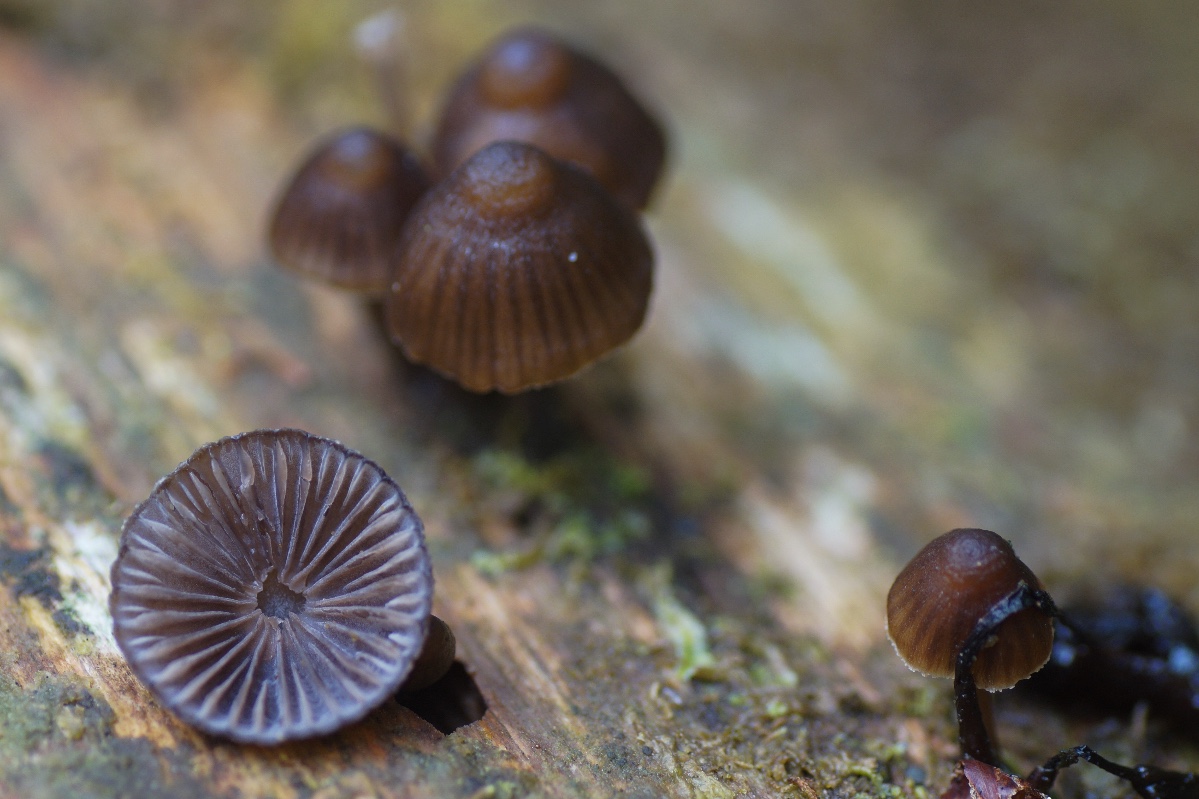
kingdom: Fungi
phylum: Basidiomycota
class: Agaricomycetes
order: Agaricales
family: Mycenaceae
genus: Mycena
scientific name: Mycena stipata
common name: stinkende huesvamp
